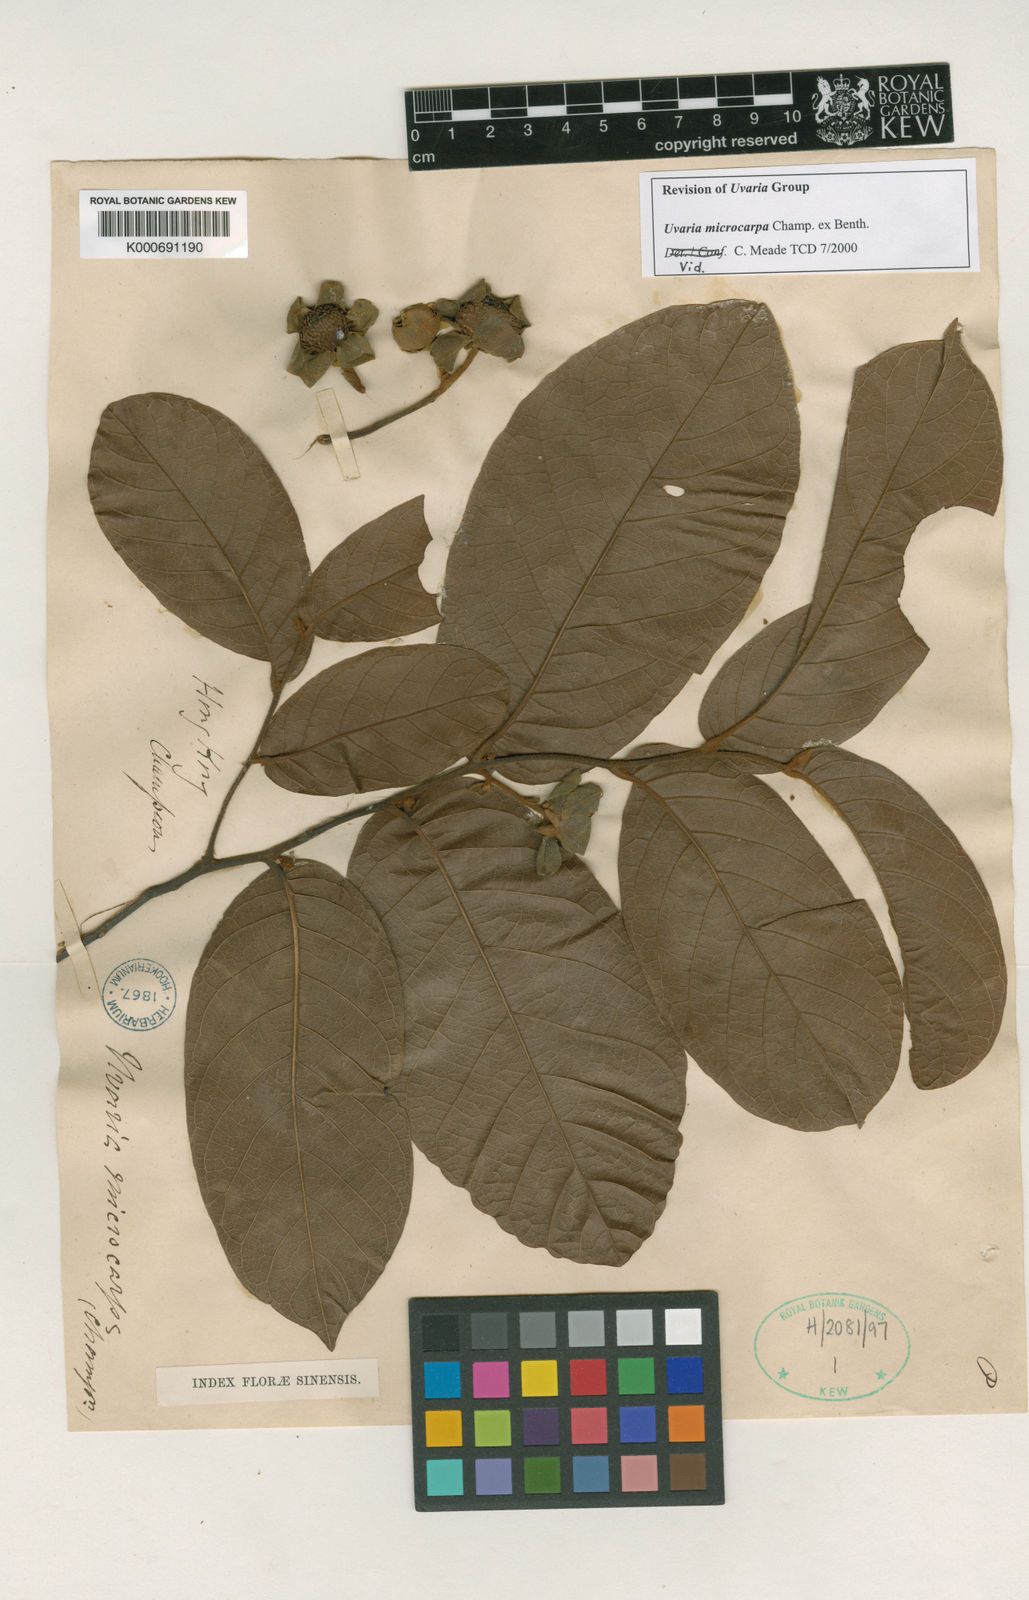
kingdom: Plantae
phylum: Tracheophyta
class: Magnoliopsida
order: Magnoliales
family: Annonaceae
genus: Uvaria
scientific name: Uvaria microcarpa
